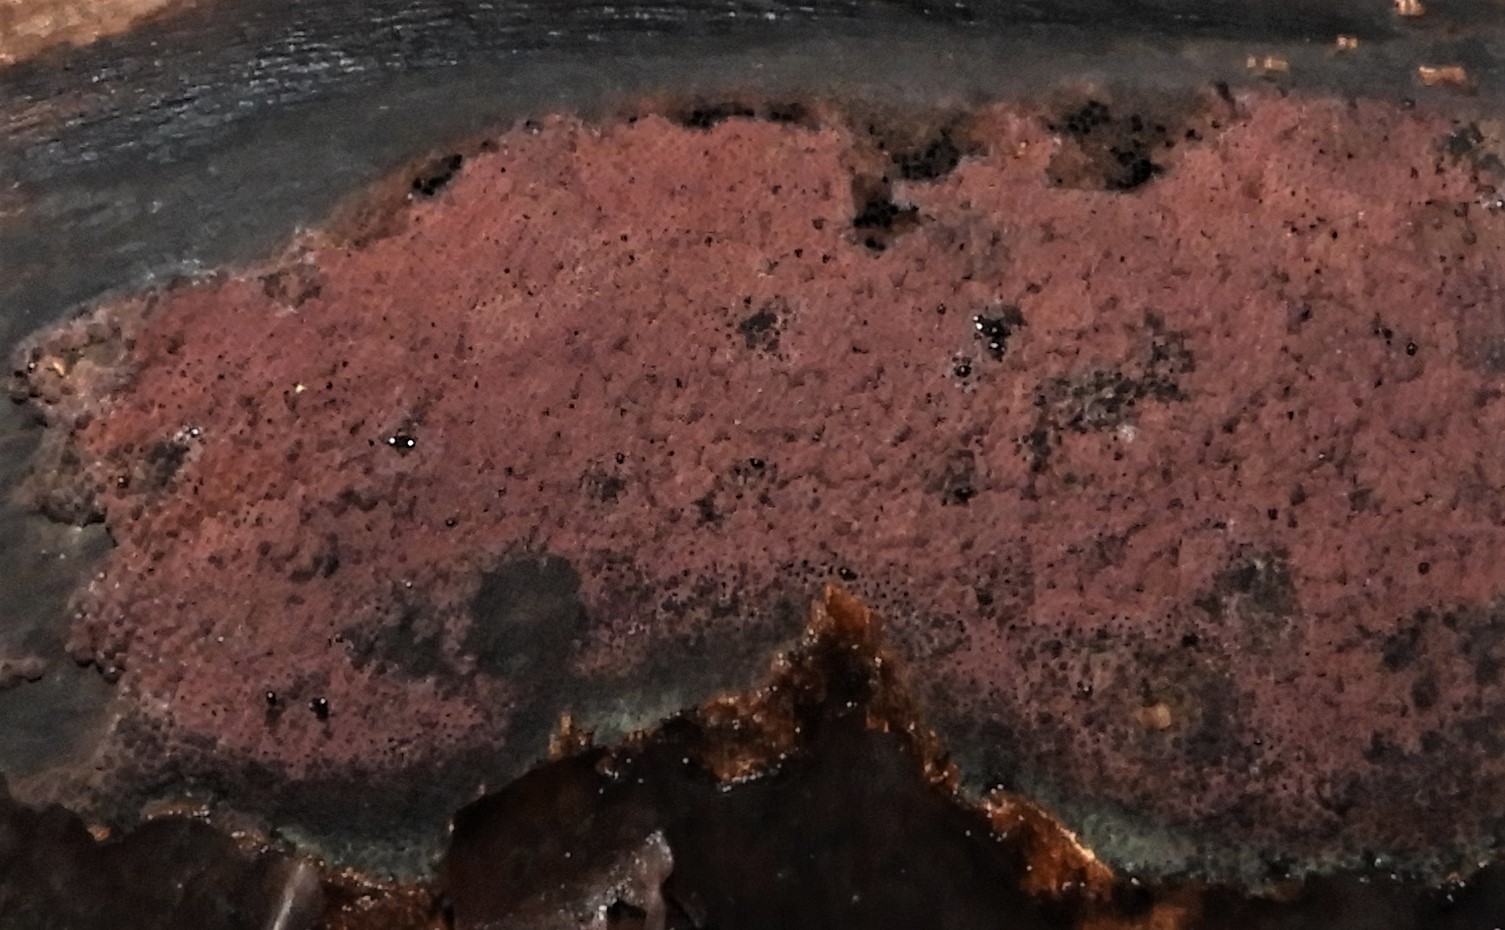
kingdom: Fungi
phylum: Ascomycota
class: Sordariomycetes
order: Xylariales
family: Hypoxylaceae
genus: Hypoxylon
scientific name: Hypoxylon macrocarpum
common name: skorpe-kulbær
